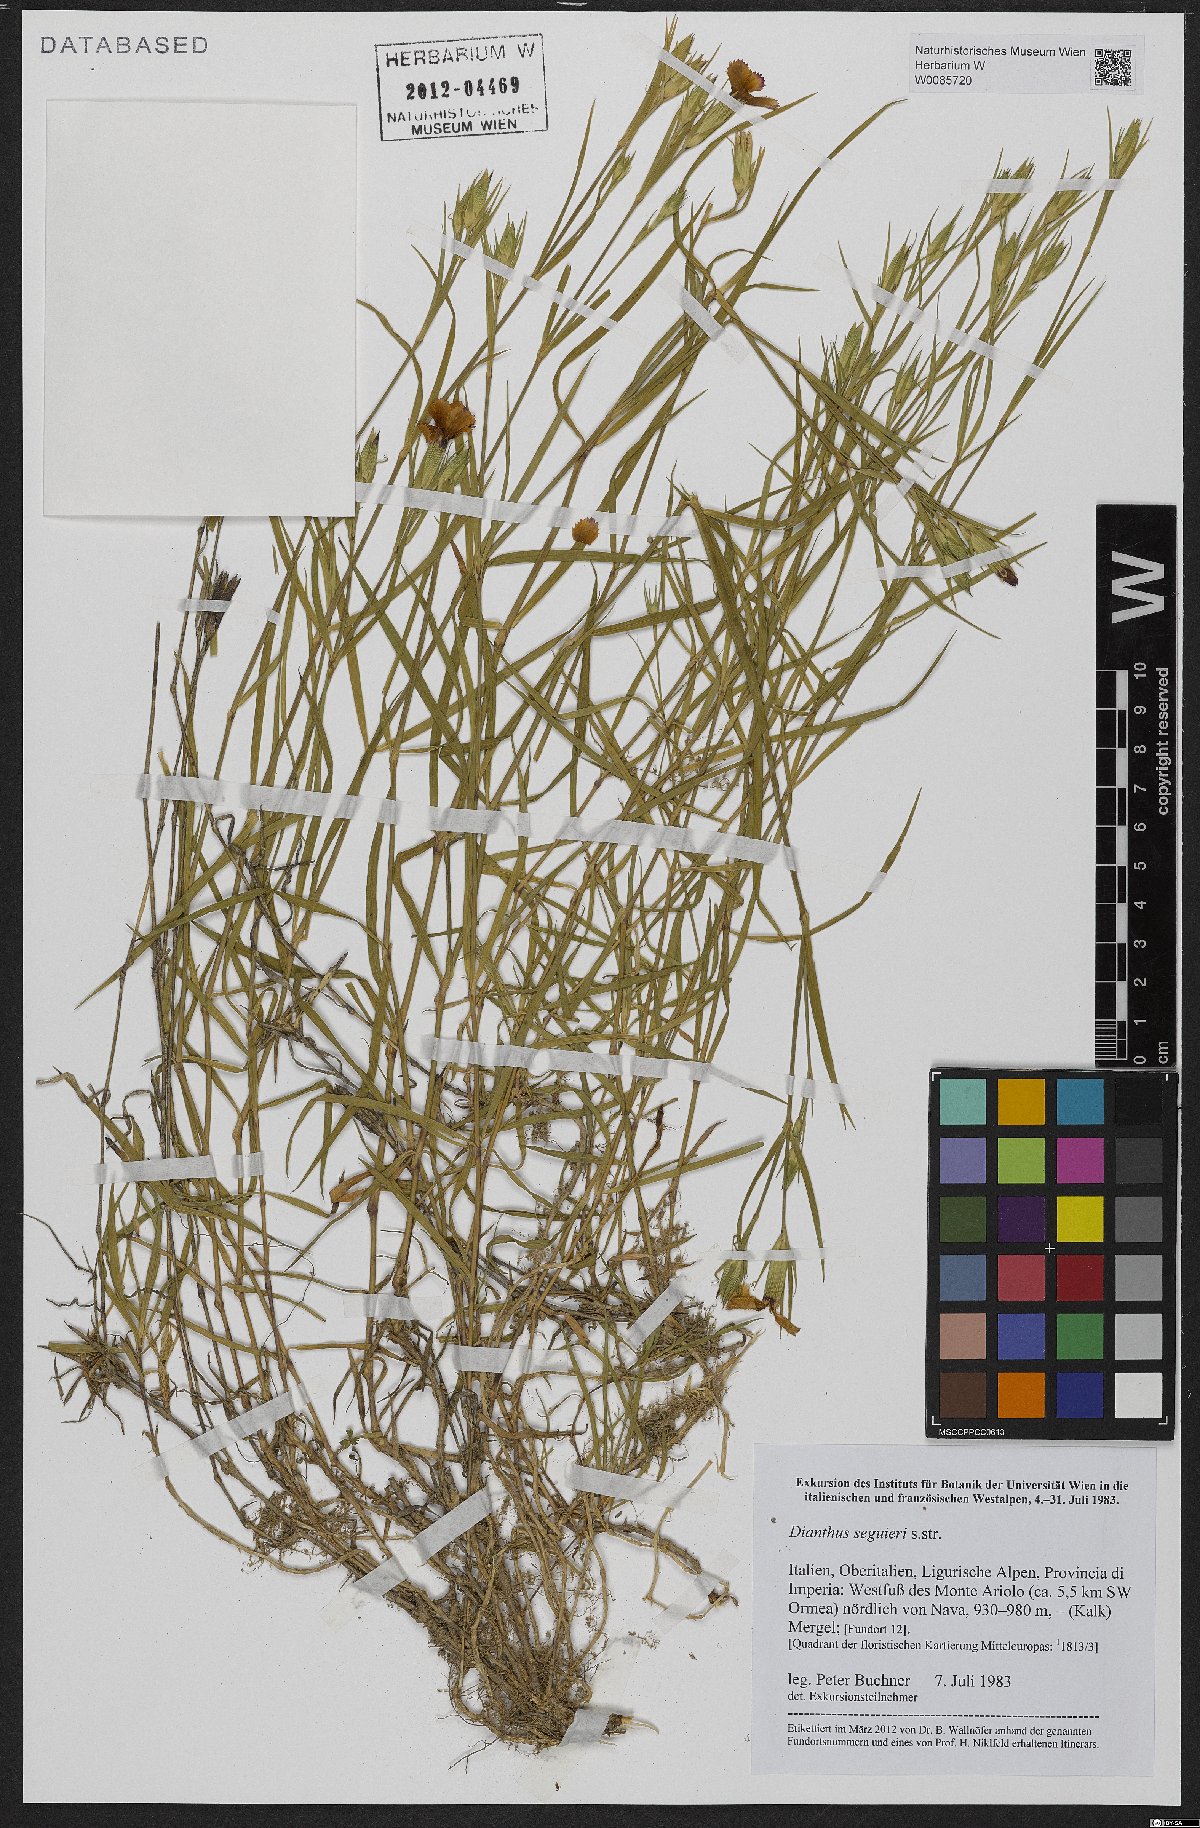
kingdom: Plantae
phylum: Tracheophyta
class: Magnoliopsida
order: Caryophyllales
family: Caryophyllaceae
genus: Dianthus
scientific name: Dianthus seguieri
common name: Ragged pink
